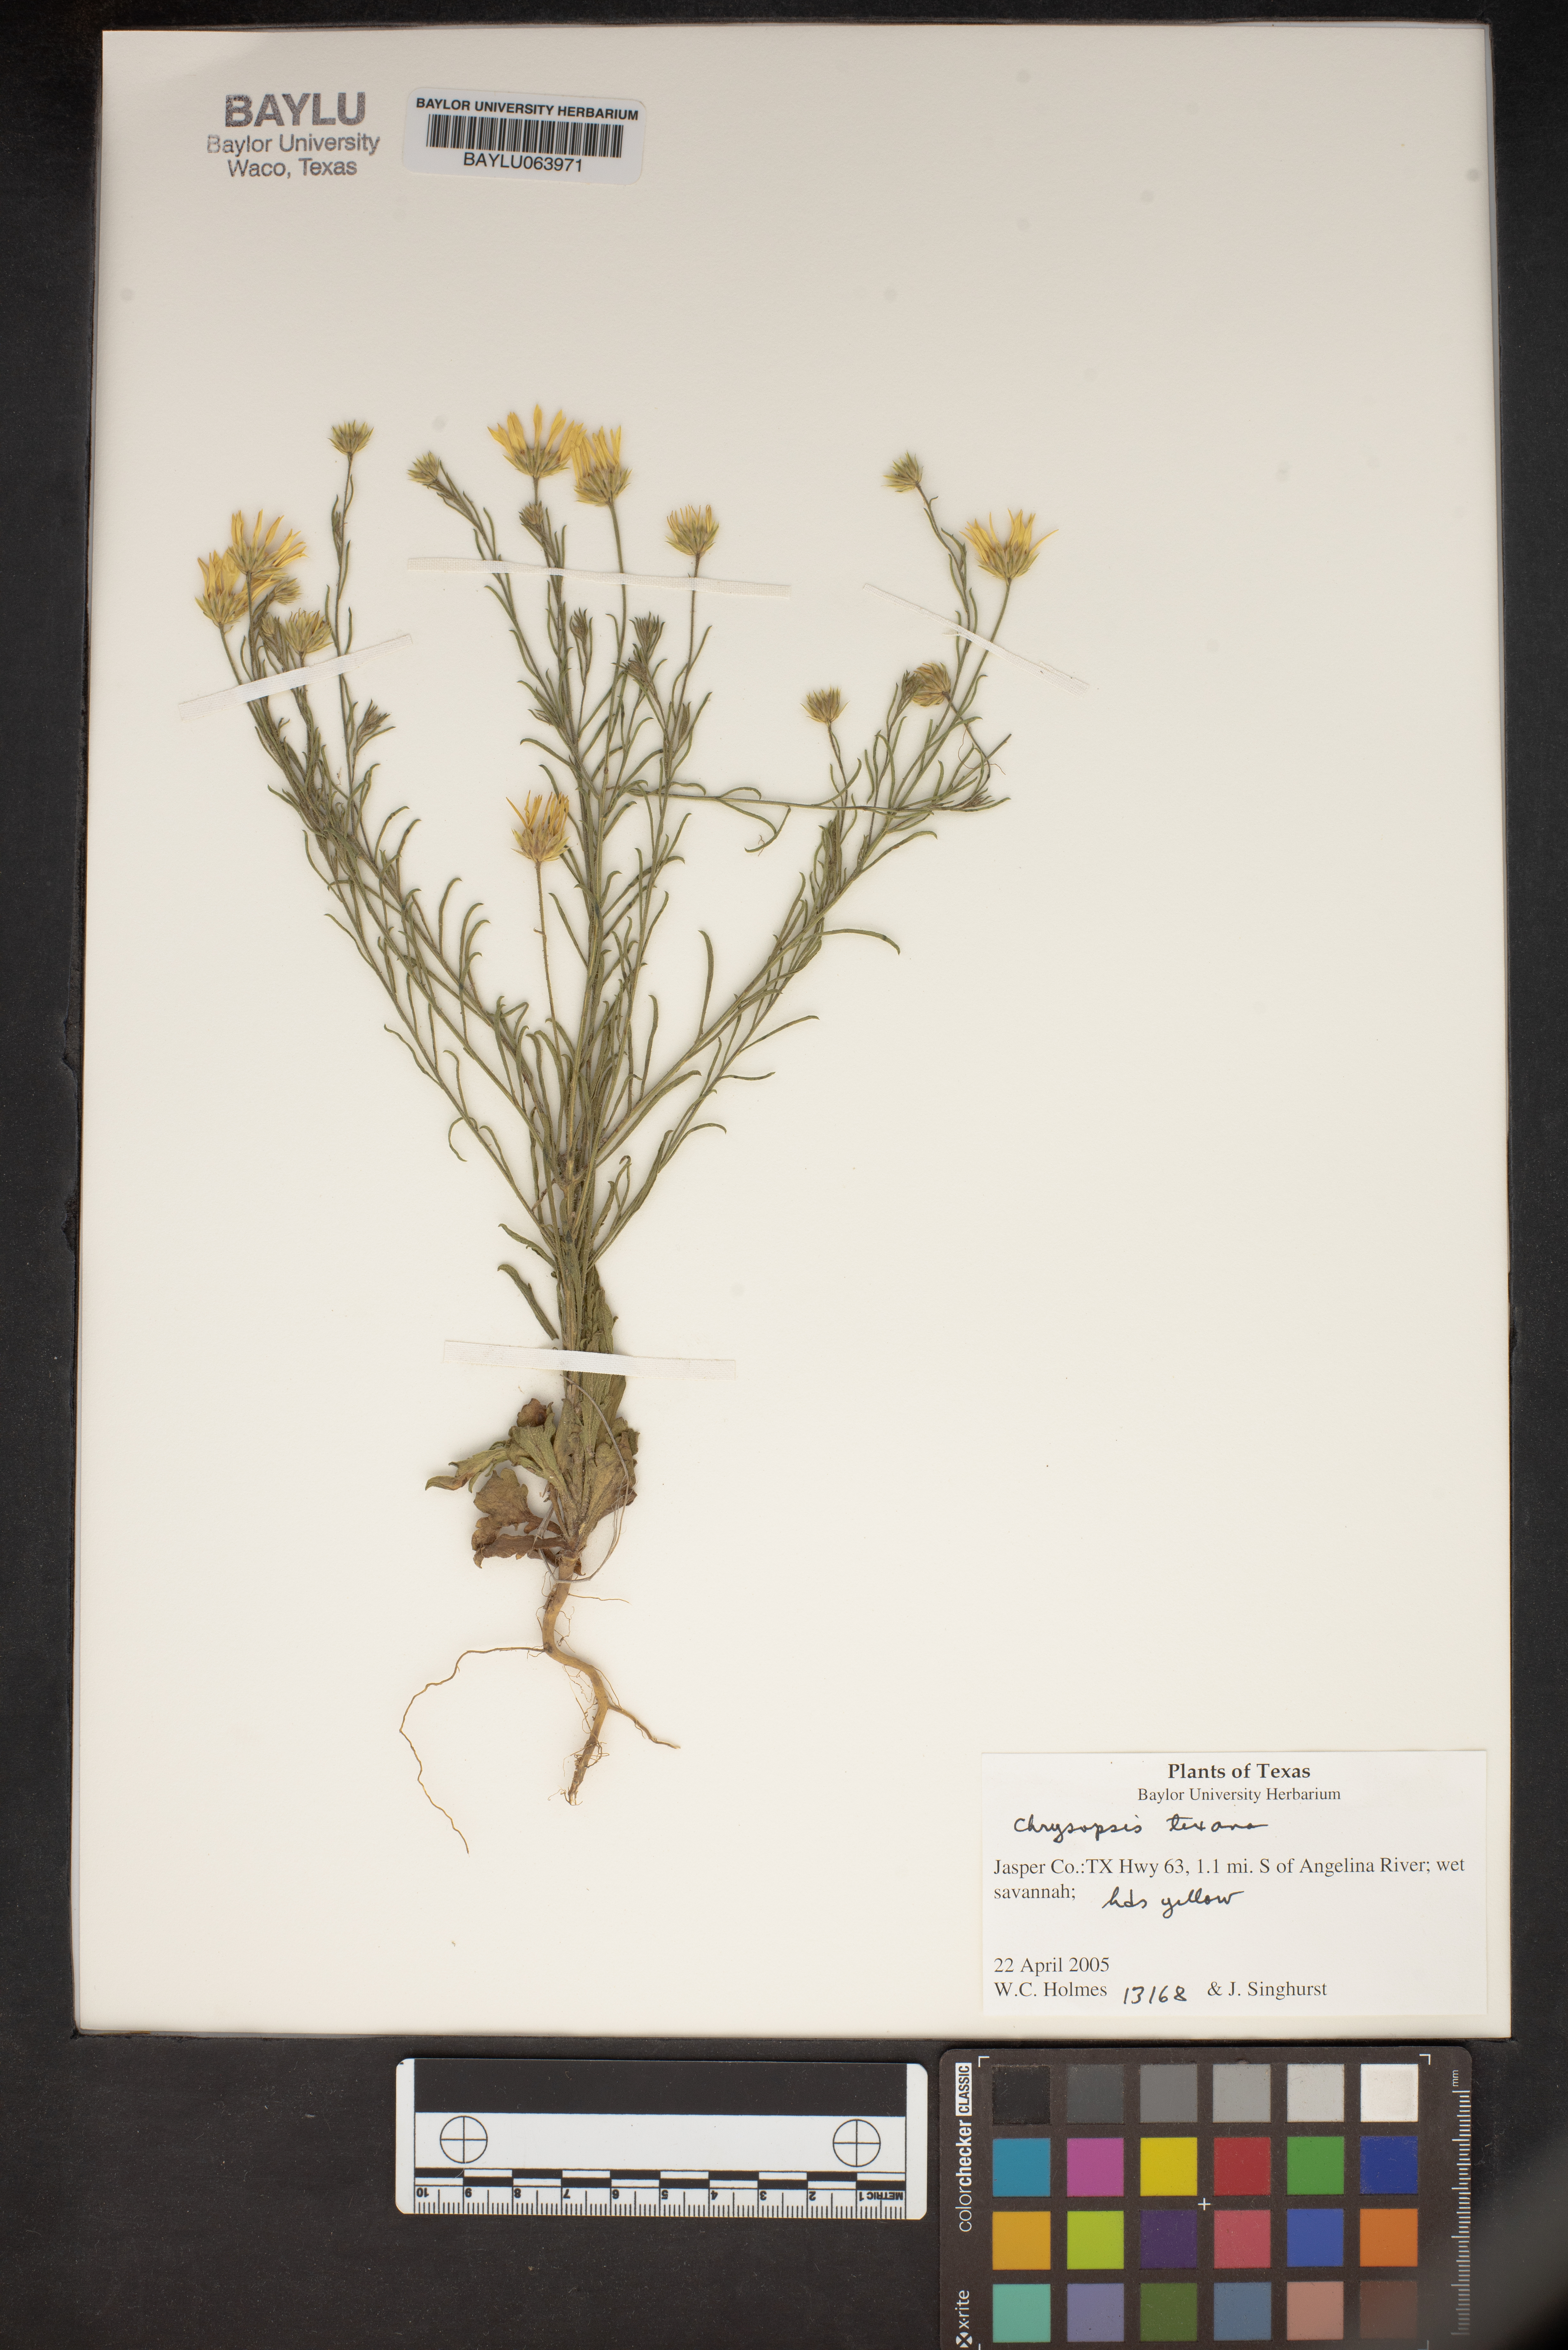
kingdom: Plantae
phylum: Tracheophyta
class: Magnoliopsida
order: Asterales
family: Asteraceae
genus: Bradburia
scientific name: Bradburia hirtella
